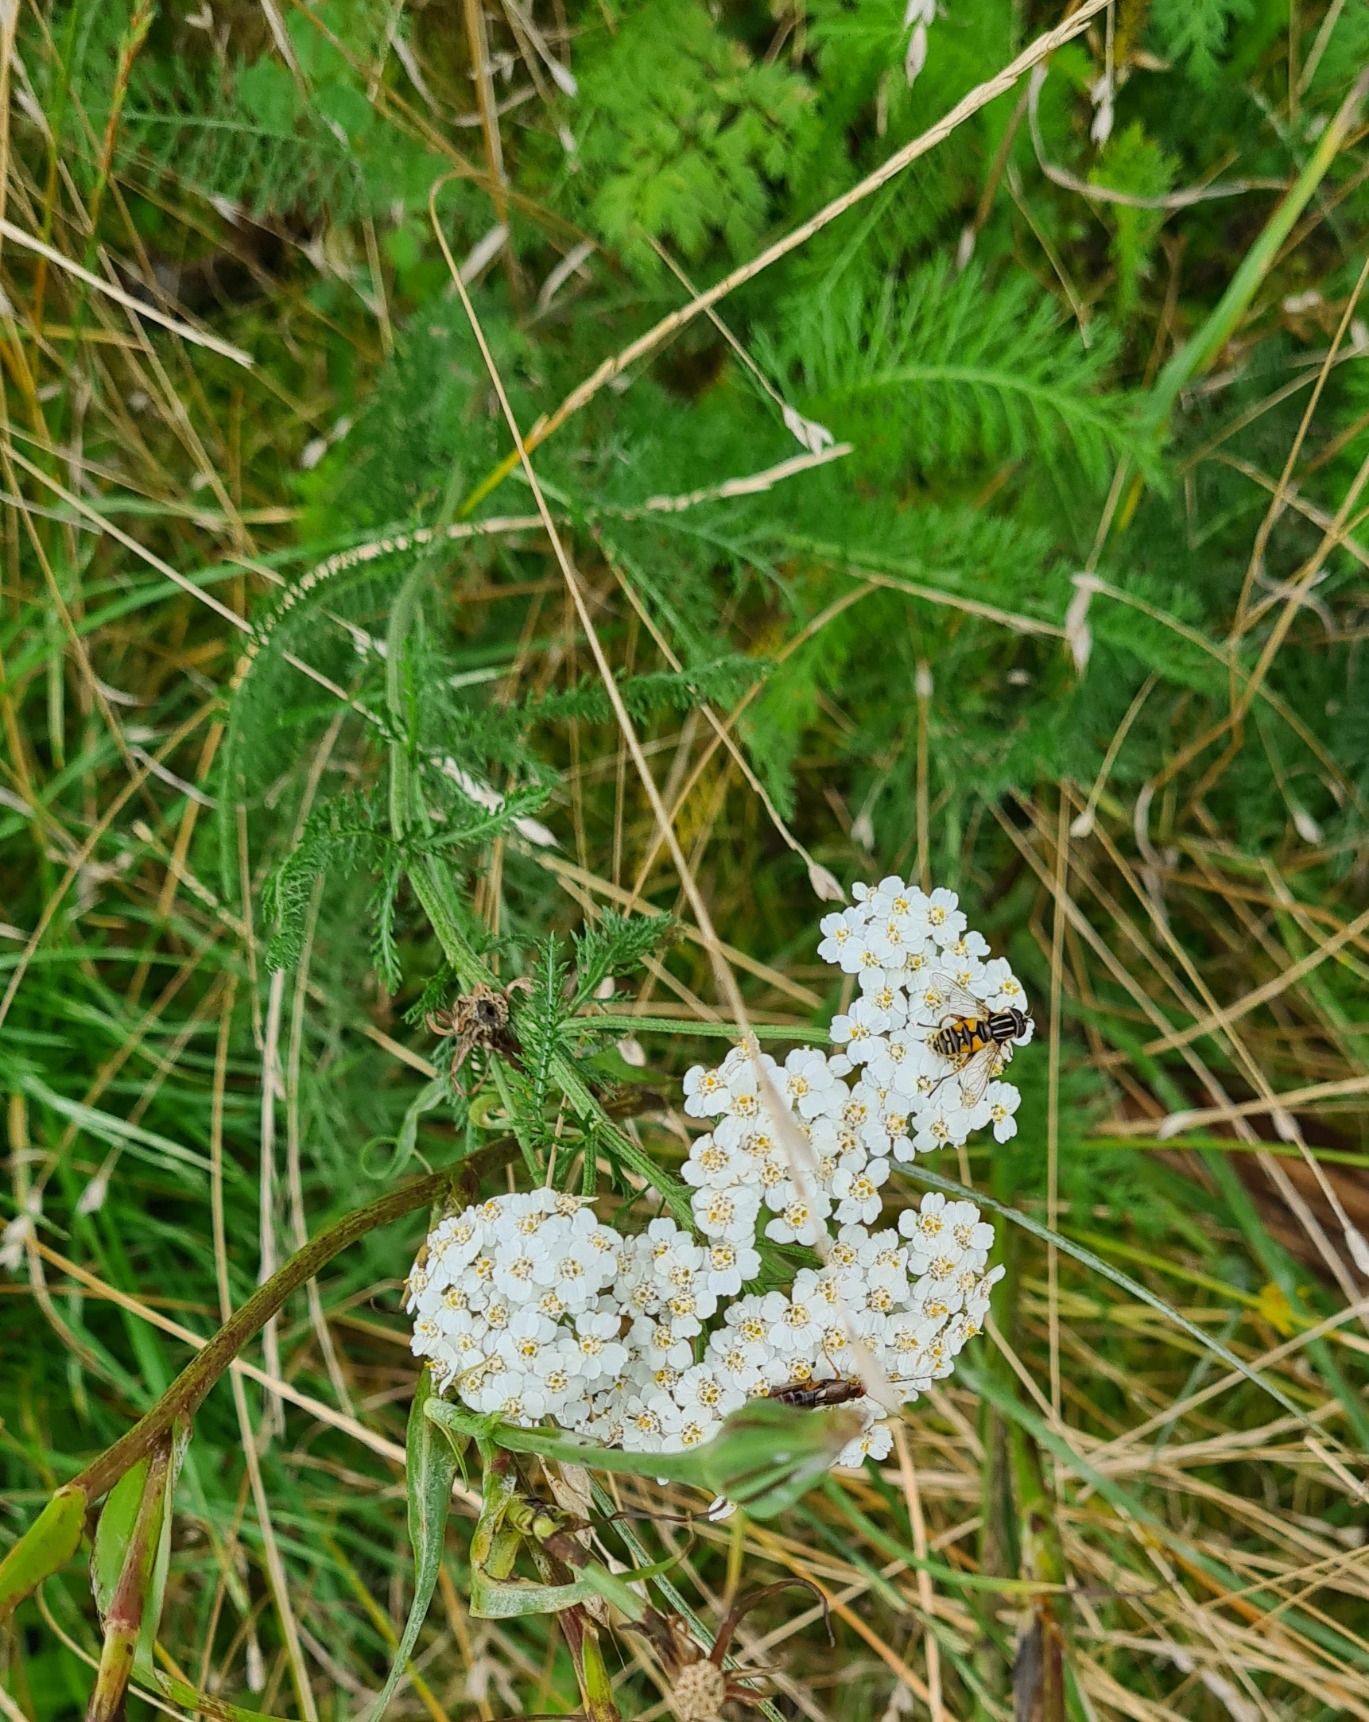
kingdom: Plantae
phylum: Tracheophyta
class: Magnoliopsida
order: Asterales
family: Asteraceae
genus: Achillea
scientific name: Achillea millefolium
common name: Almindelig røllike
